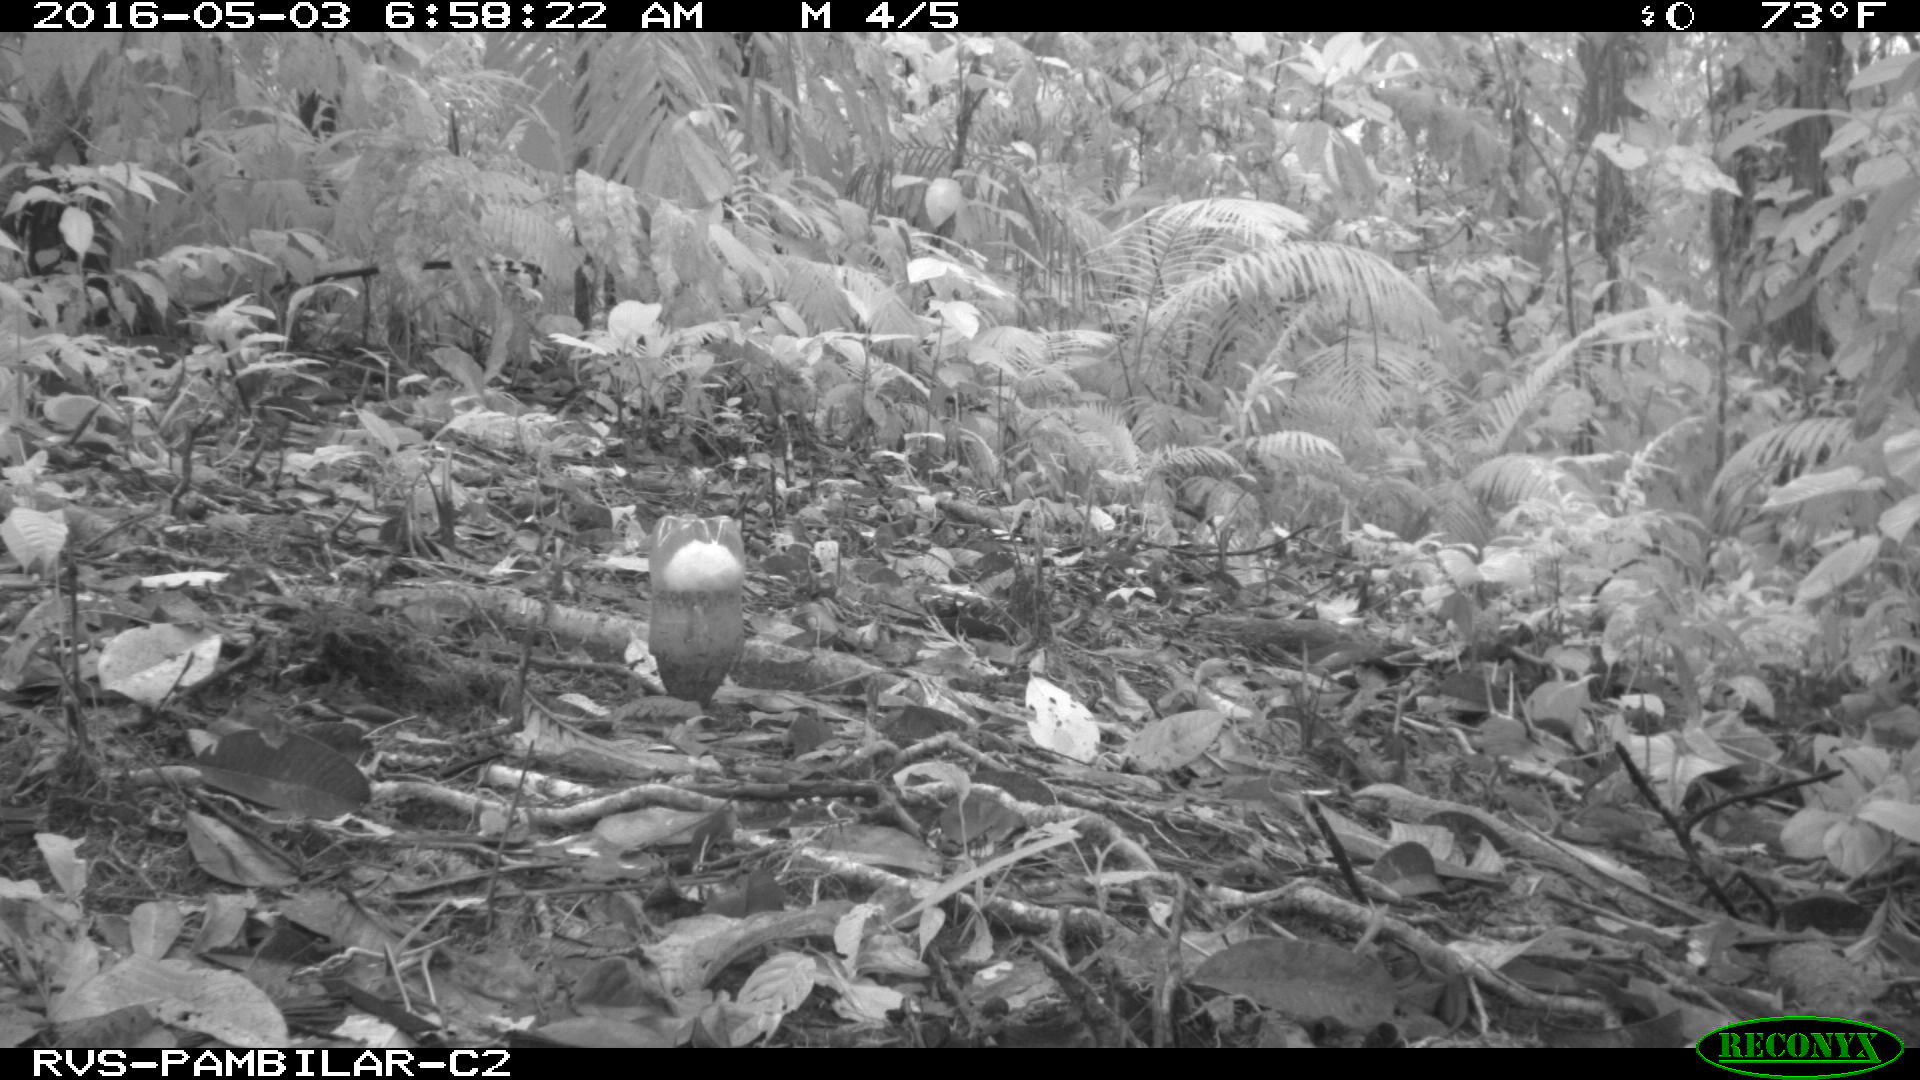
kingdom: Animalia
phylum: Chordata
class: Mammalia
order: Rodentia
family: Dasyproctidae
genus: Dasyprocta
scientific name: Dasyprocta punctata
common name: Central american agouti
